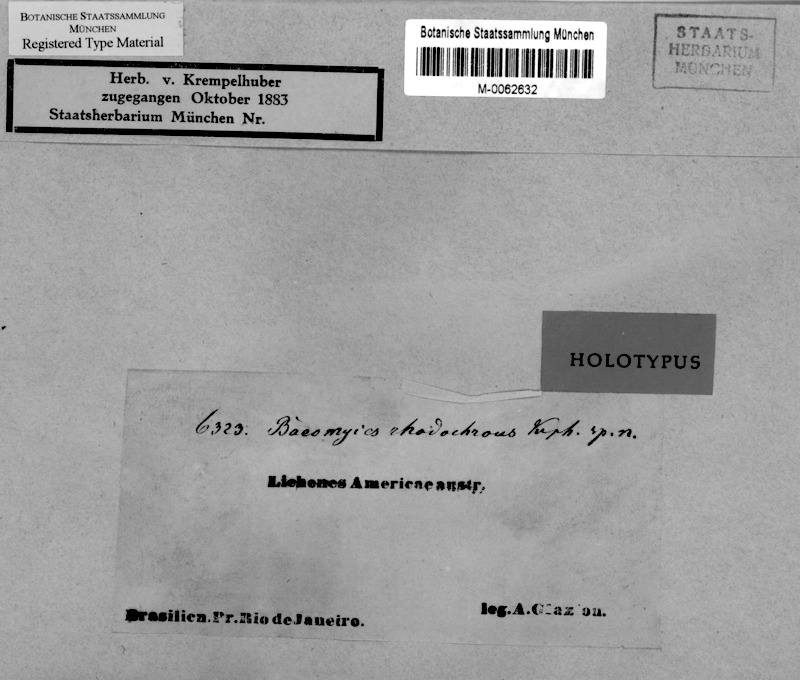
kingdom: Fungi
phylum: Ascomycota
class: Lecanoromycetes
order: Baeomycetales
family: Baeomycetaceae
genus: Phyllobaeis
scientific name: Phyllobaeis rhodochroa
